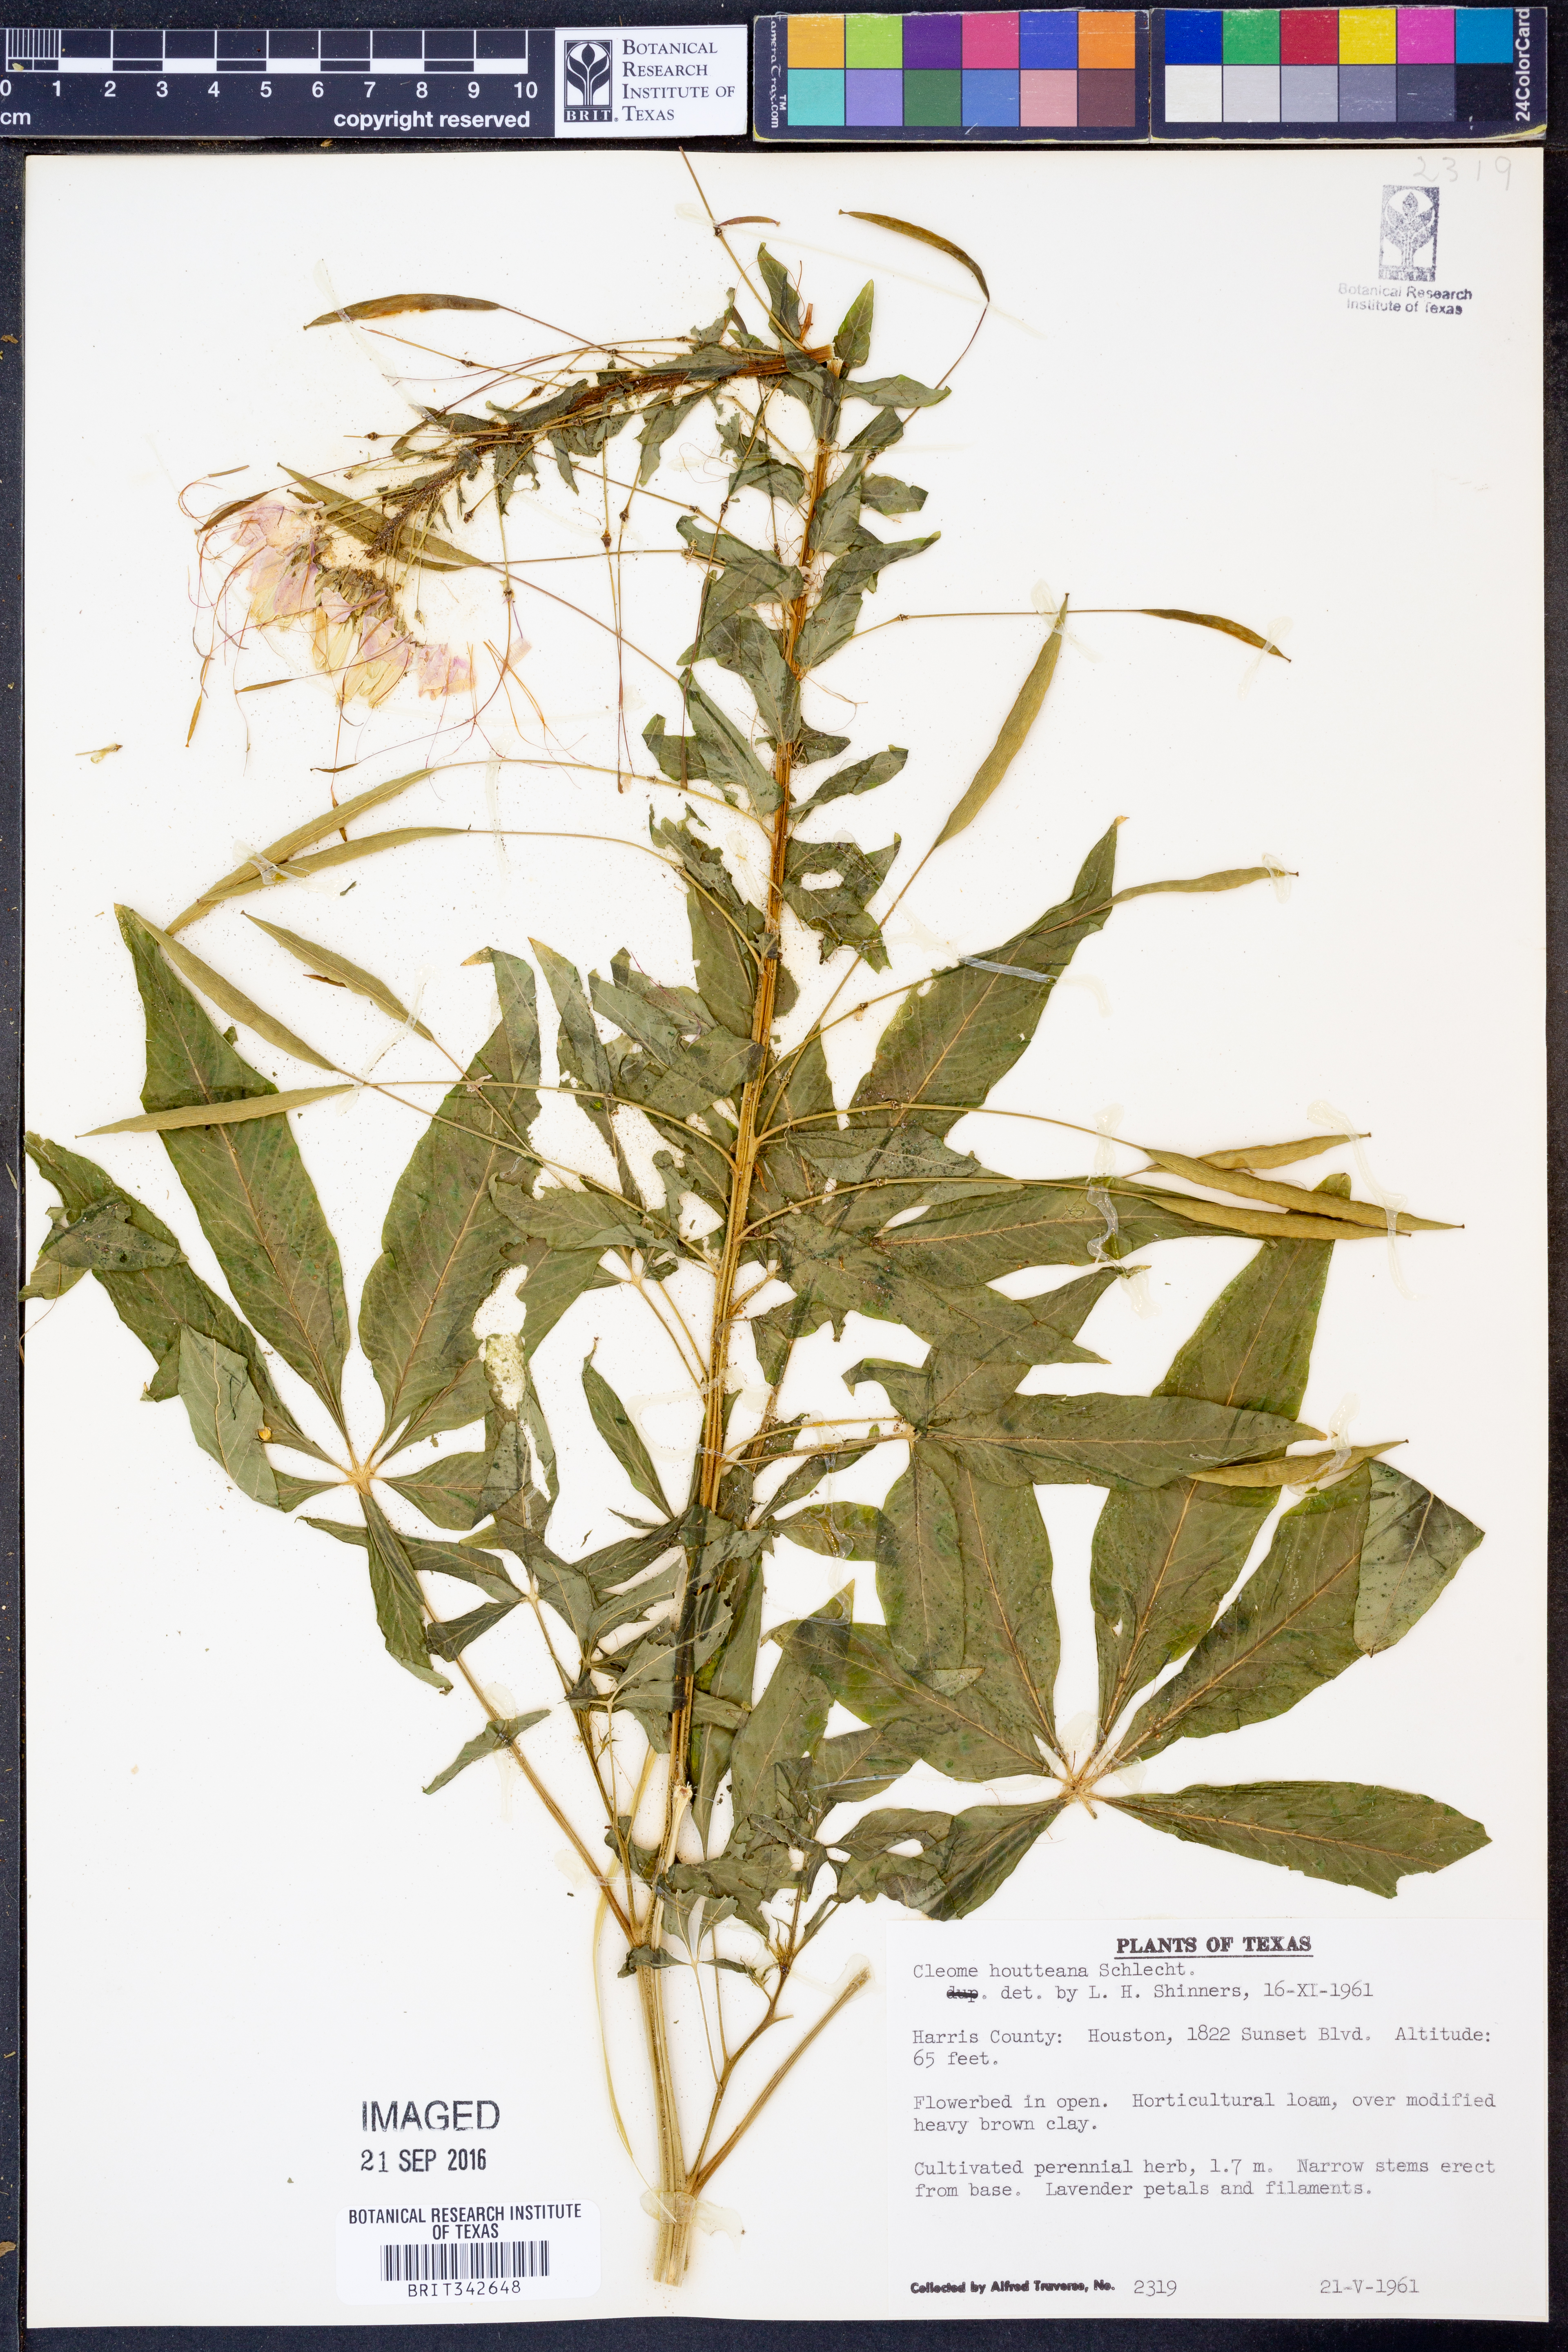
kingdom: Plantae
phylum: Tracheophyta
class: Magnoliopsida
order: Brassicales
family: Cleomaceae
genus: Tarenaya
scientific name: Tarenaya houtteana
